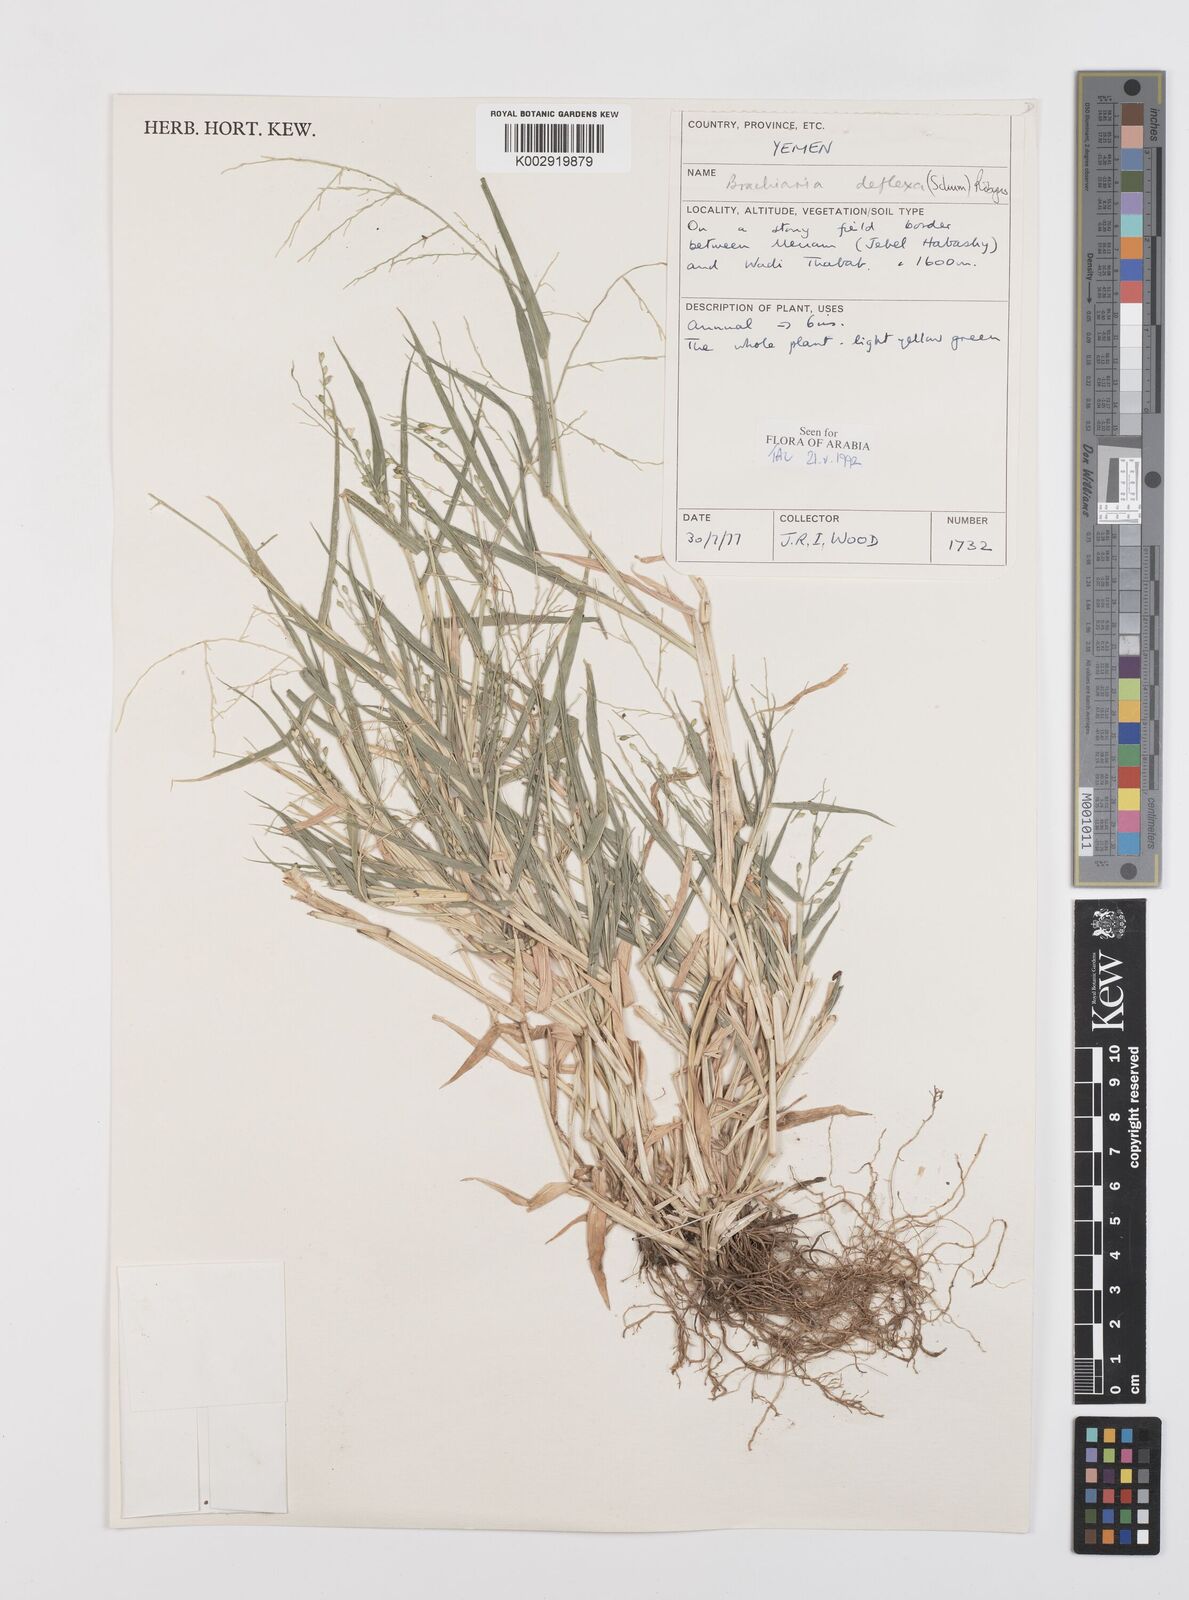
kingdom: Plantae
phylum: Tracheophyta
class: Liliopsida
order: Poales
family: Poaceae
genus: Urochloa
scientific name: Urochloa deflexa
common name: Guinea millet
